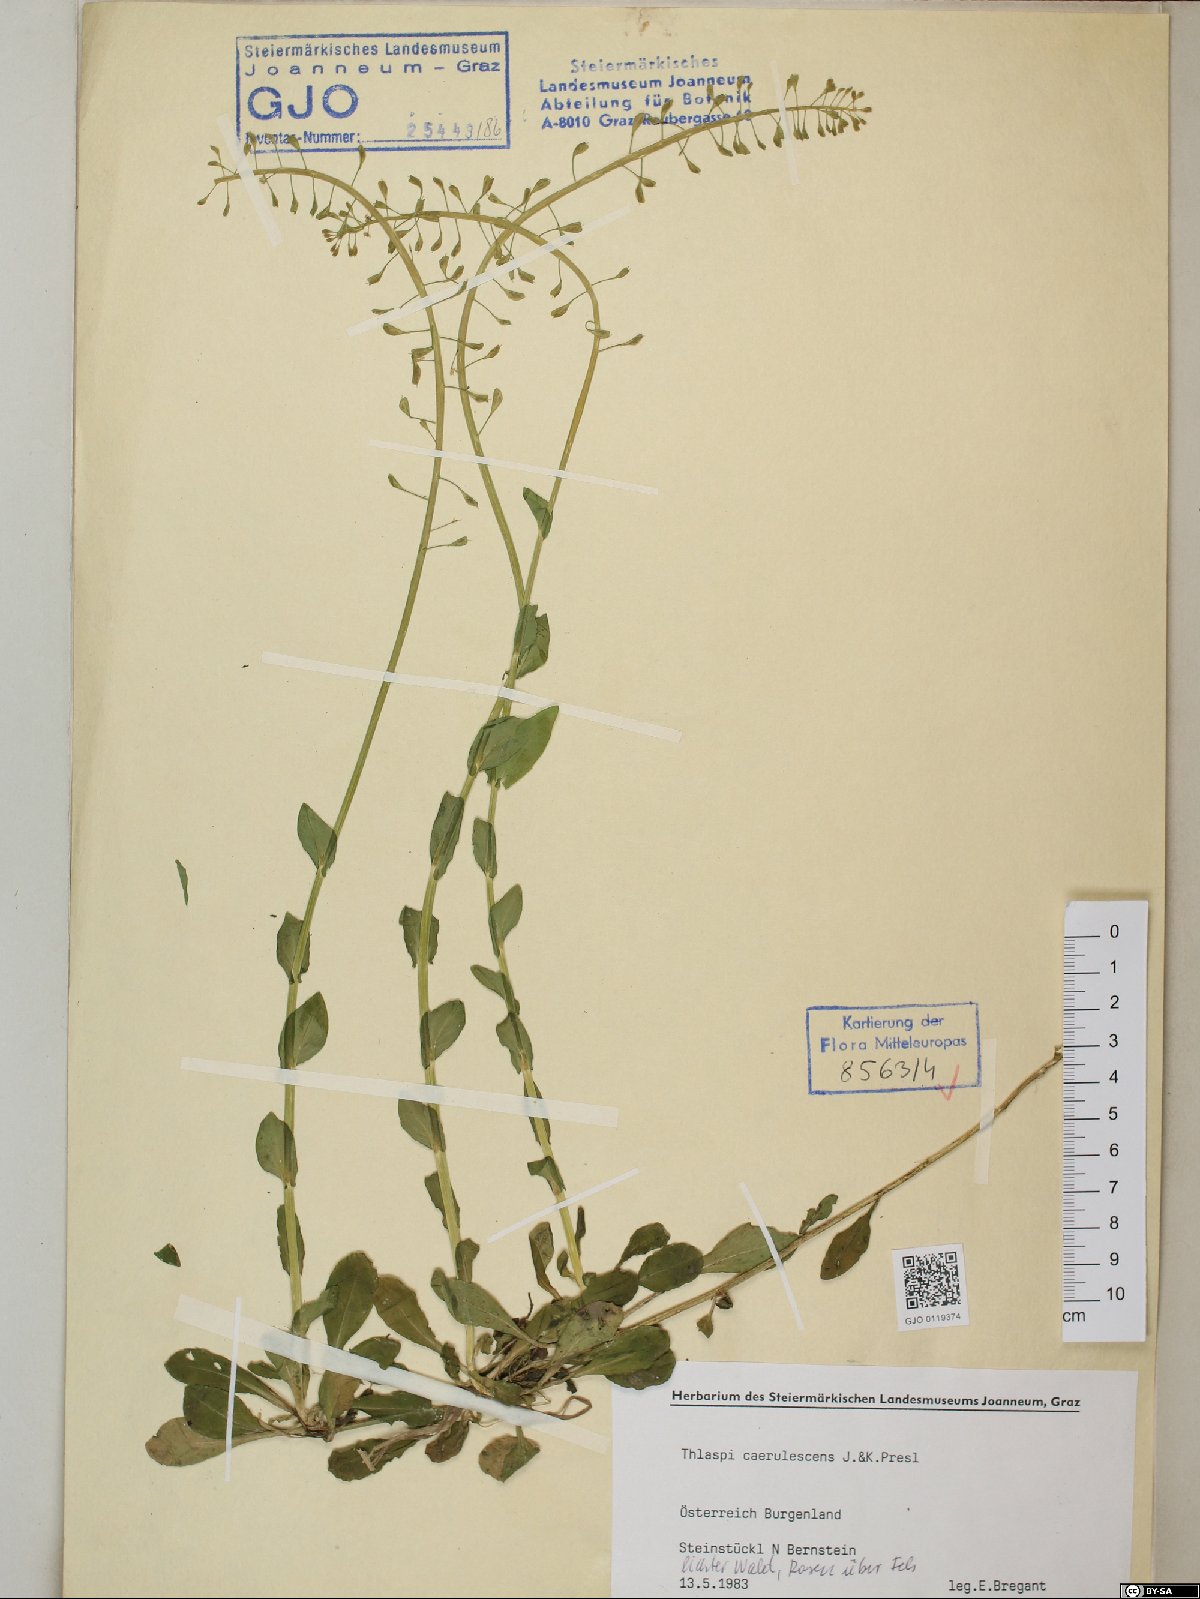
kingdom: Plantae
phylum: Tracheophyta
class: Magnoliopsida
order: Brassicales
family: Brassicaceae
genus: Noccaea
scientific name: Noccaea caerulescens
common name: Alpine pennycress
